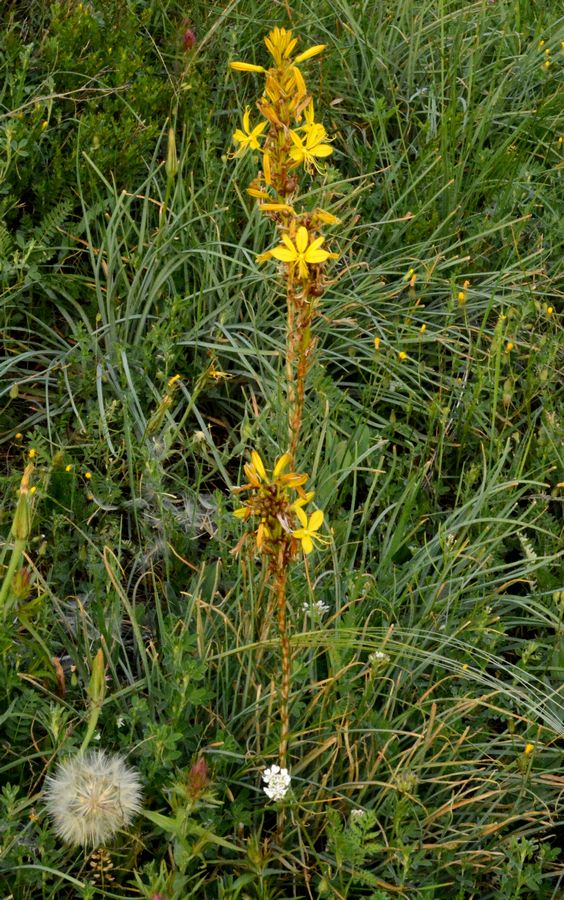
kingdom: Plantae
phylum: Tracheophyta
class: Liliopsida
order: Asparagales
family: Asphodelaceae
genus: Asphodeline
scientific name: Asphodeline lutea
